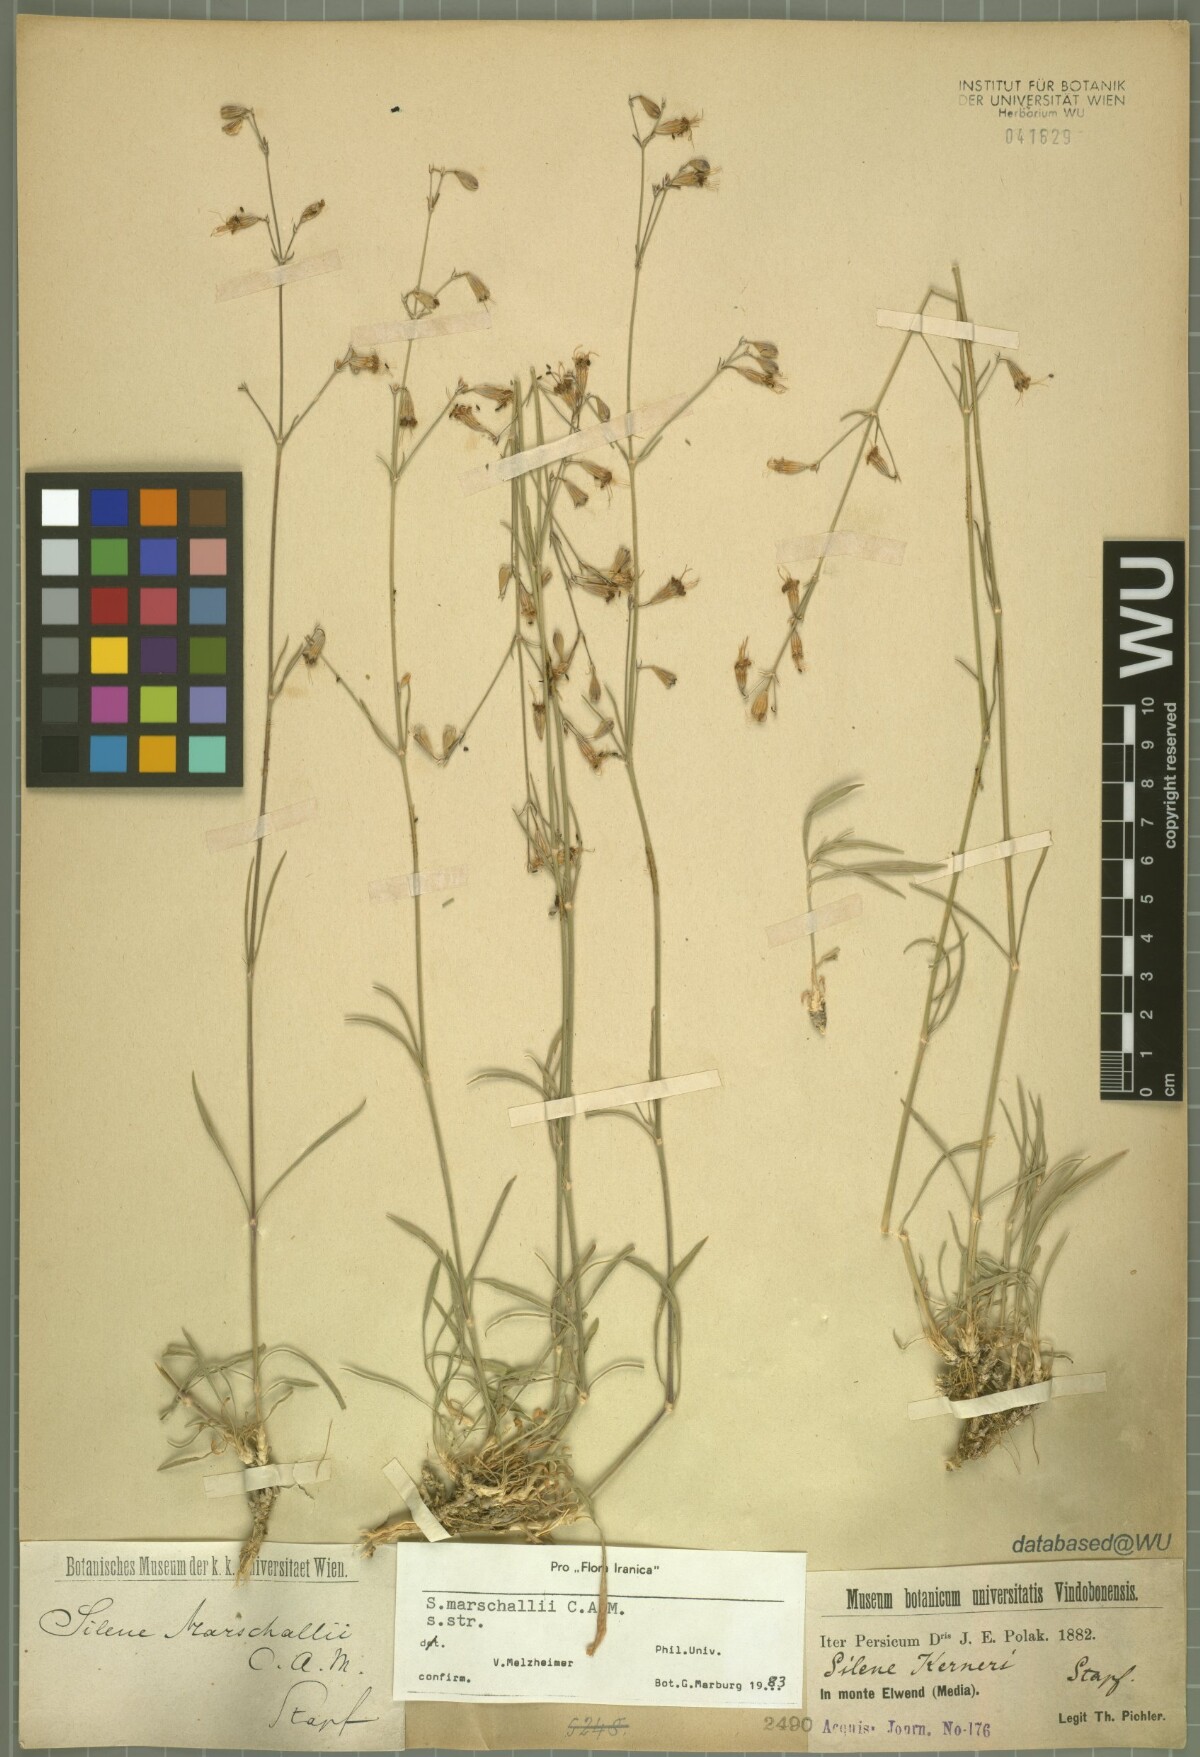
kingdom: Plantae
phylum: Tracheophyta
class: Magnoliopsida
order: Caryophyllales
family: Caryophyllaceae
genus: Silene
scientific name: Silene kerneri
